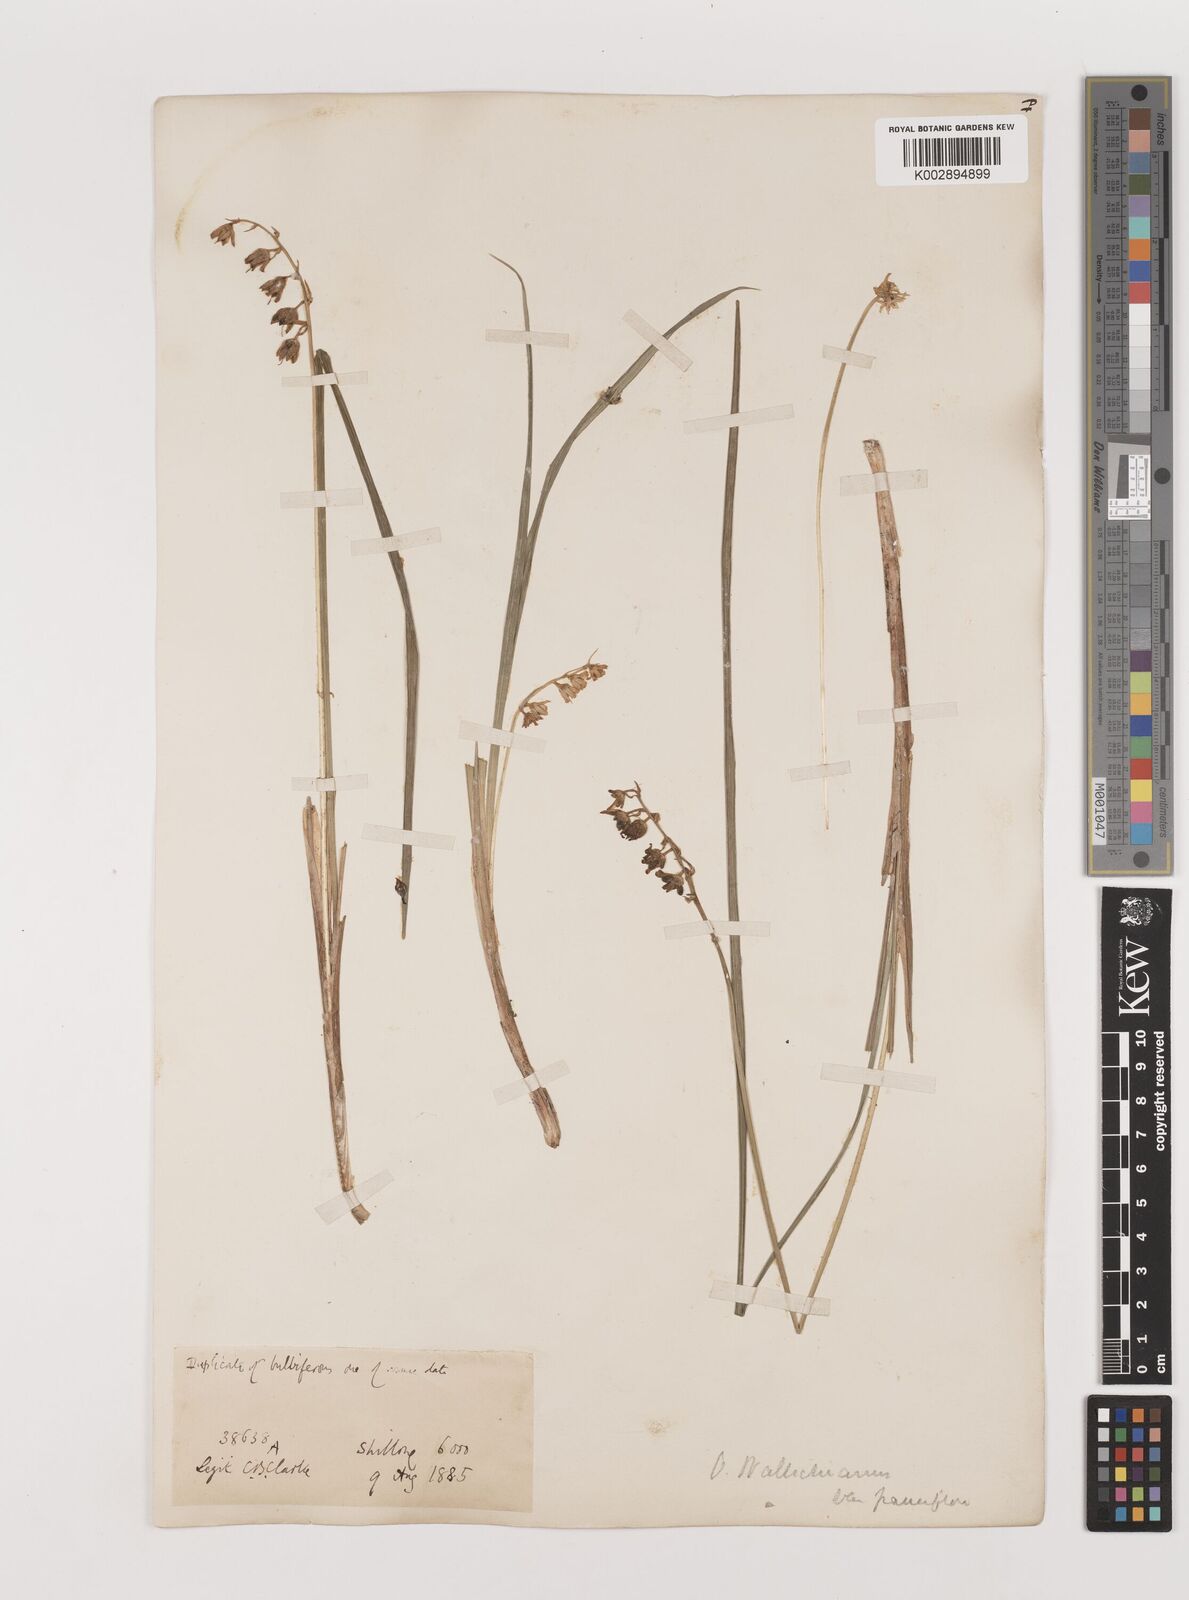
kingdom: Plantae
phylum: Tracheophyta
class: Liliopsida
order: Asparagales
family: Asparagaceae
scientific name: Asparagaceae
